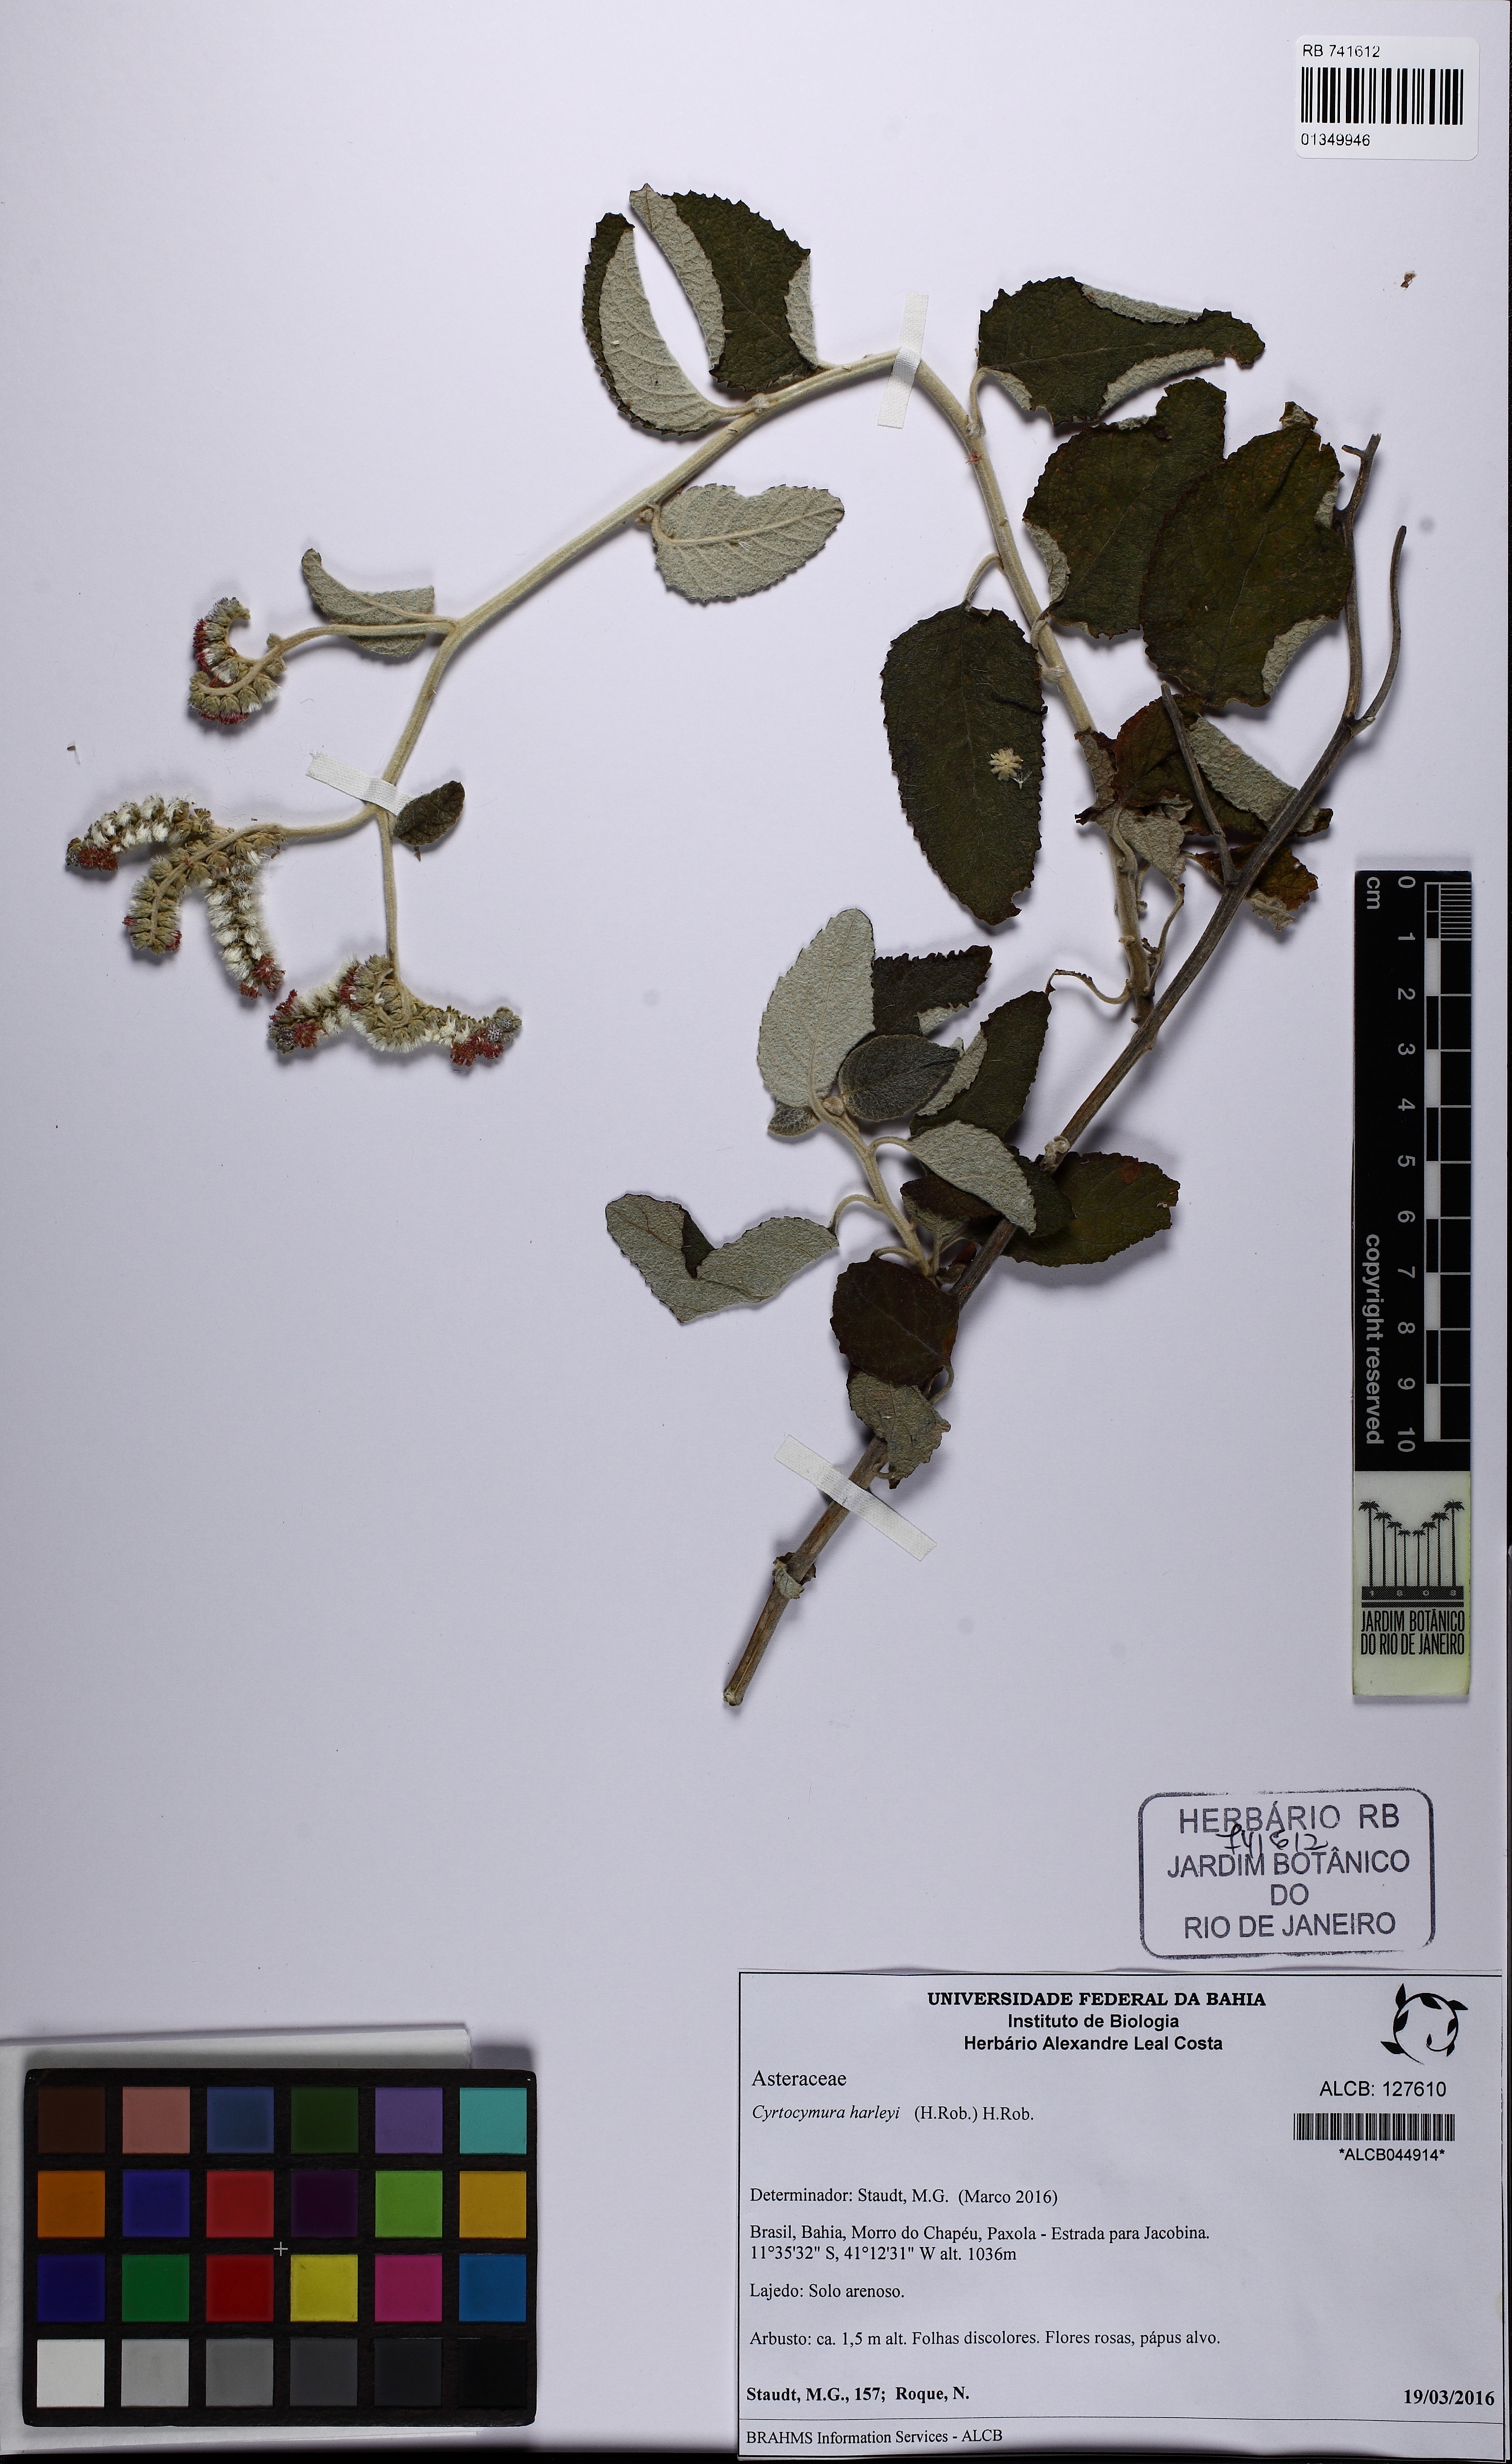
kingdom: Plantae
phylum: Tracheophyta
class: Magnoliopsida
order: Asterales
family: Asteraceae
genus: Cyrtocymura
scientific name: Cyrtocymura harleyi
